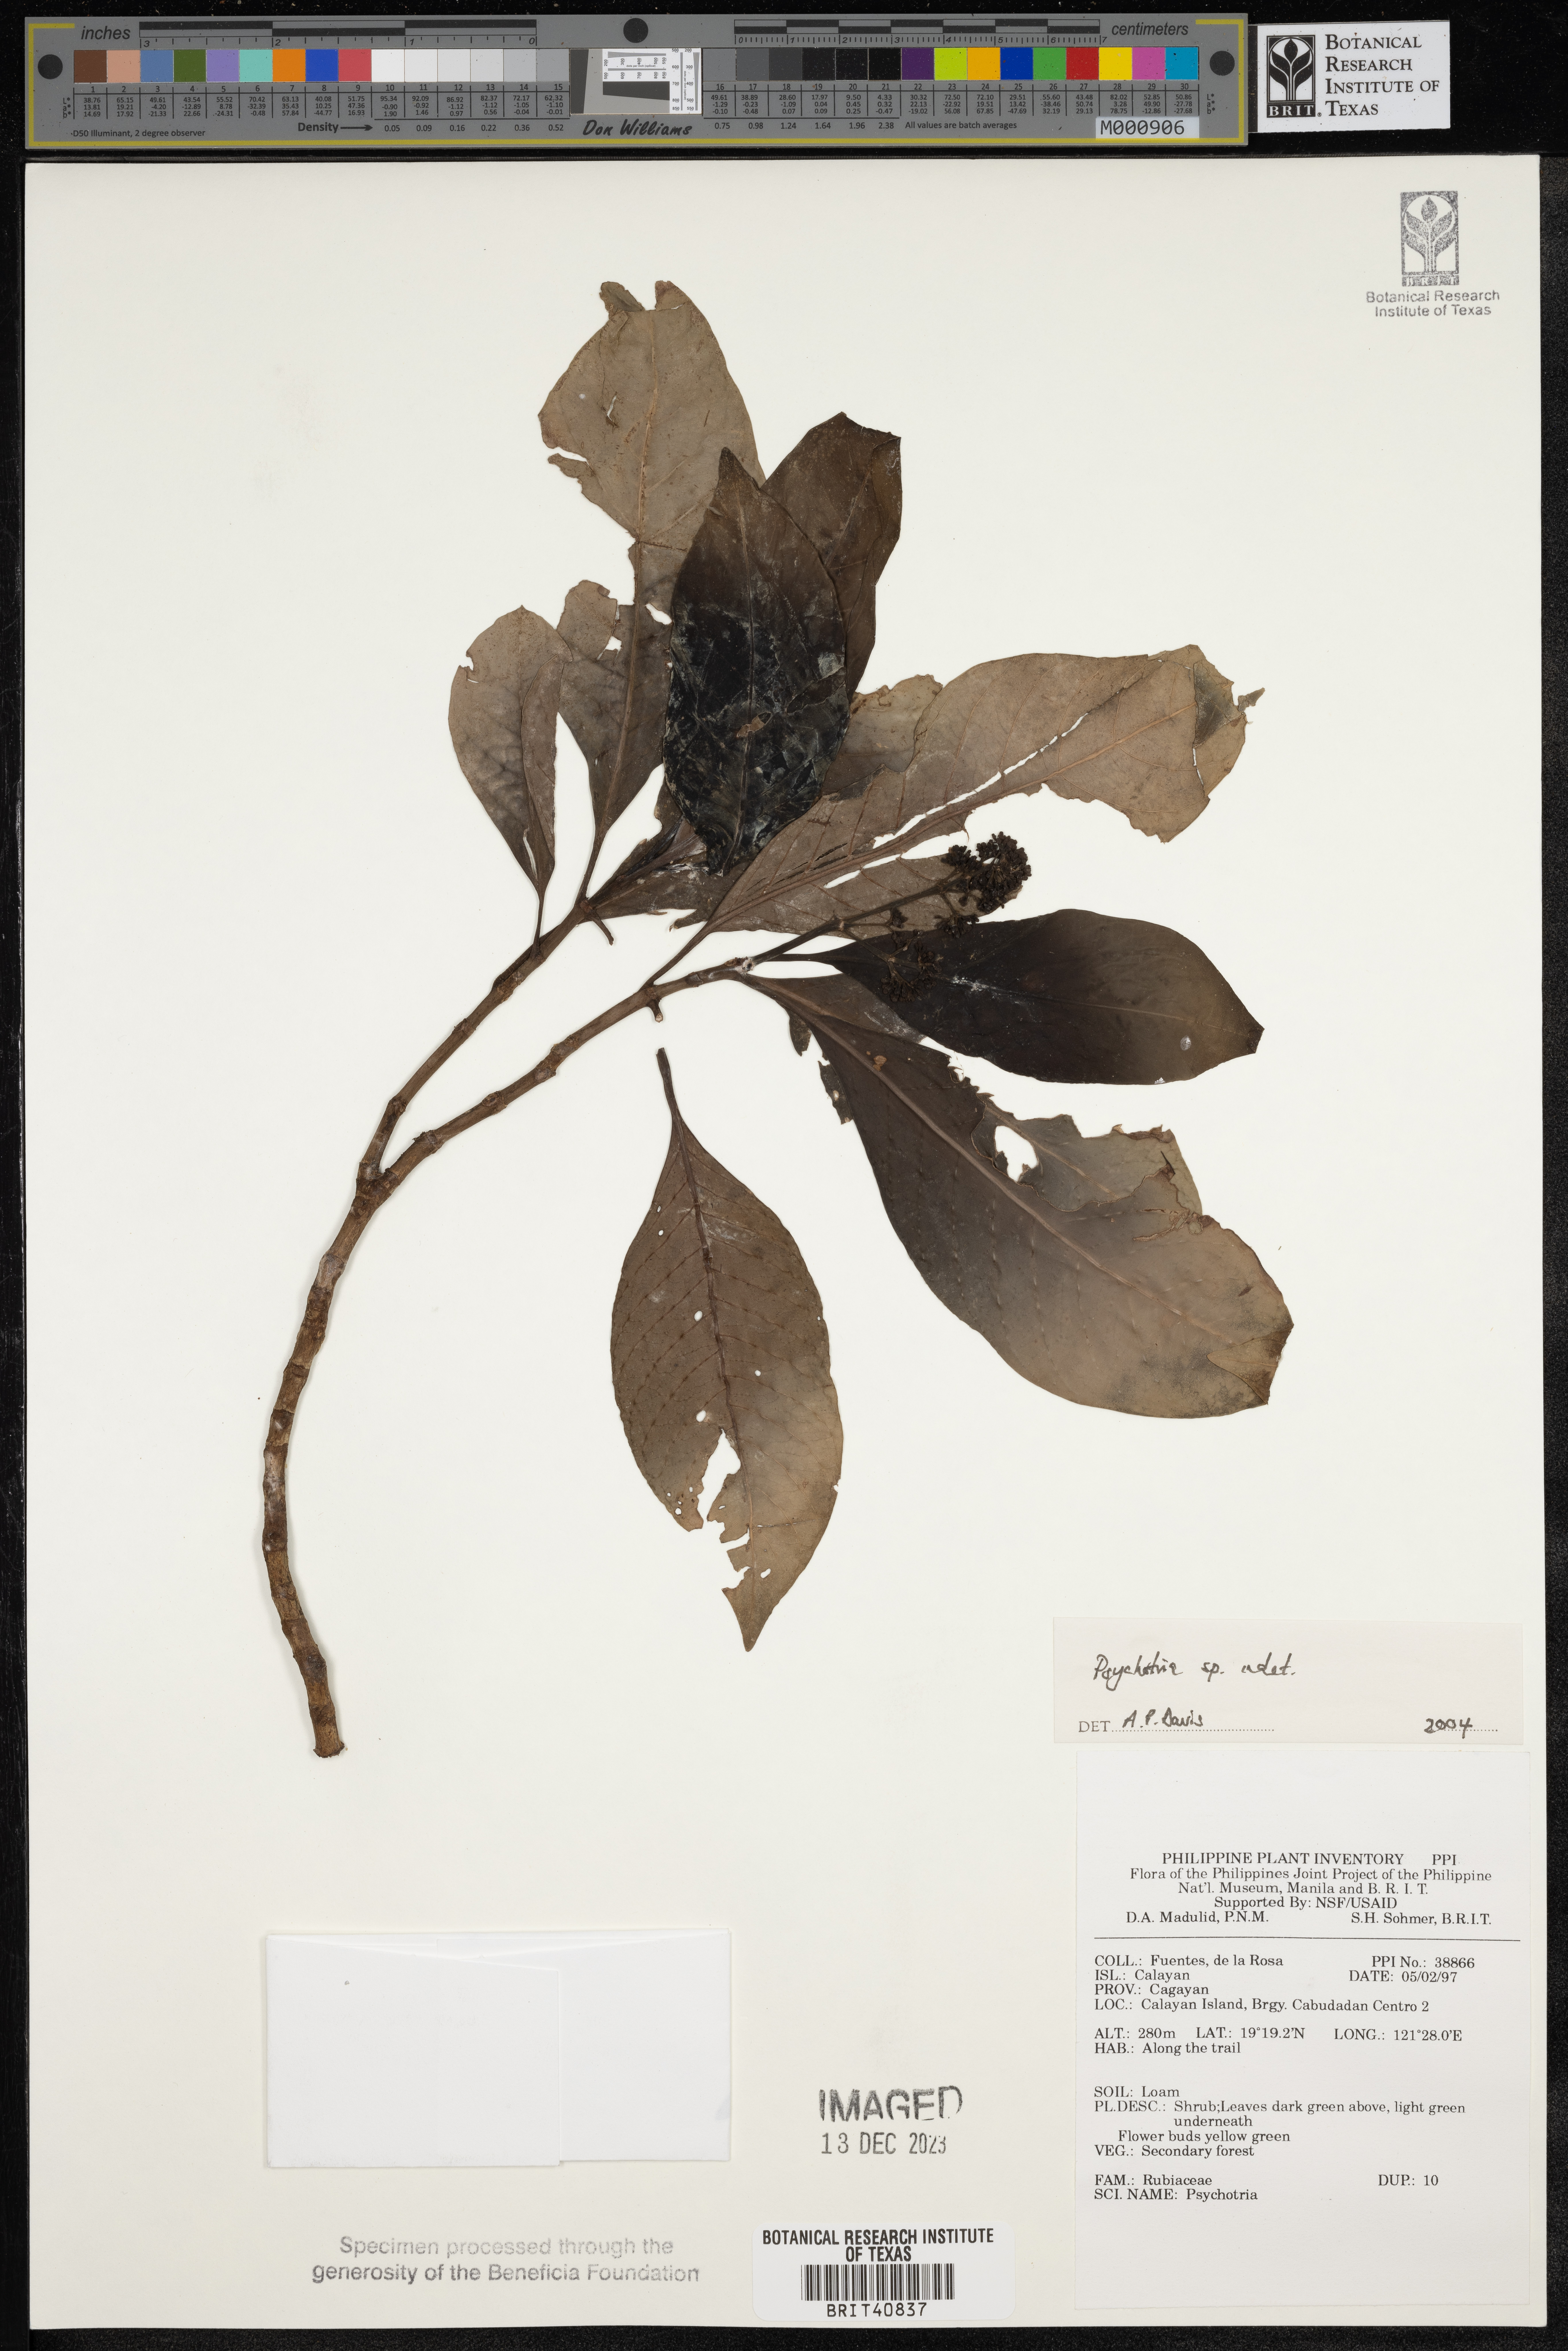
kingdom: Plantae
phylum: Tracheophyta
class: Magnoliopsida
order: Gentianales
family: Rubiaceae
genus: Psychotria
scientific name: Psychotria
